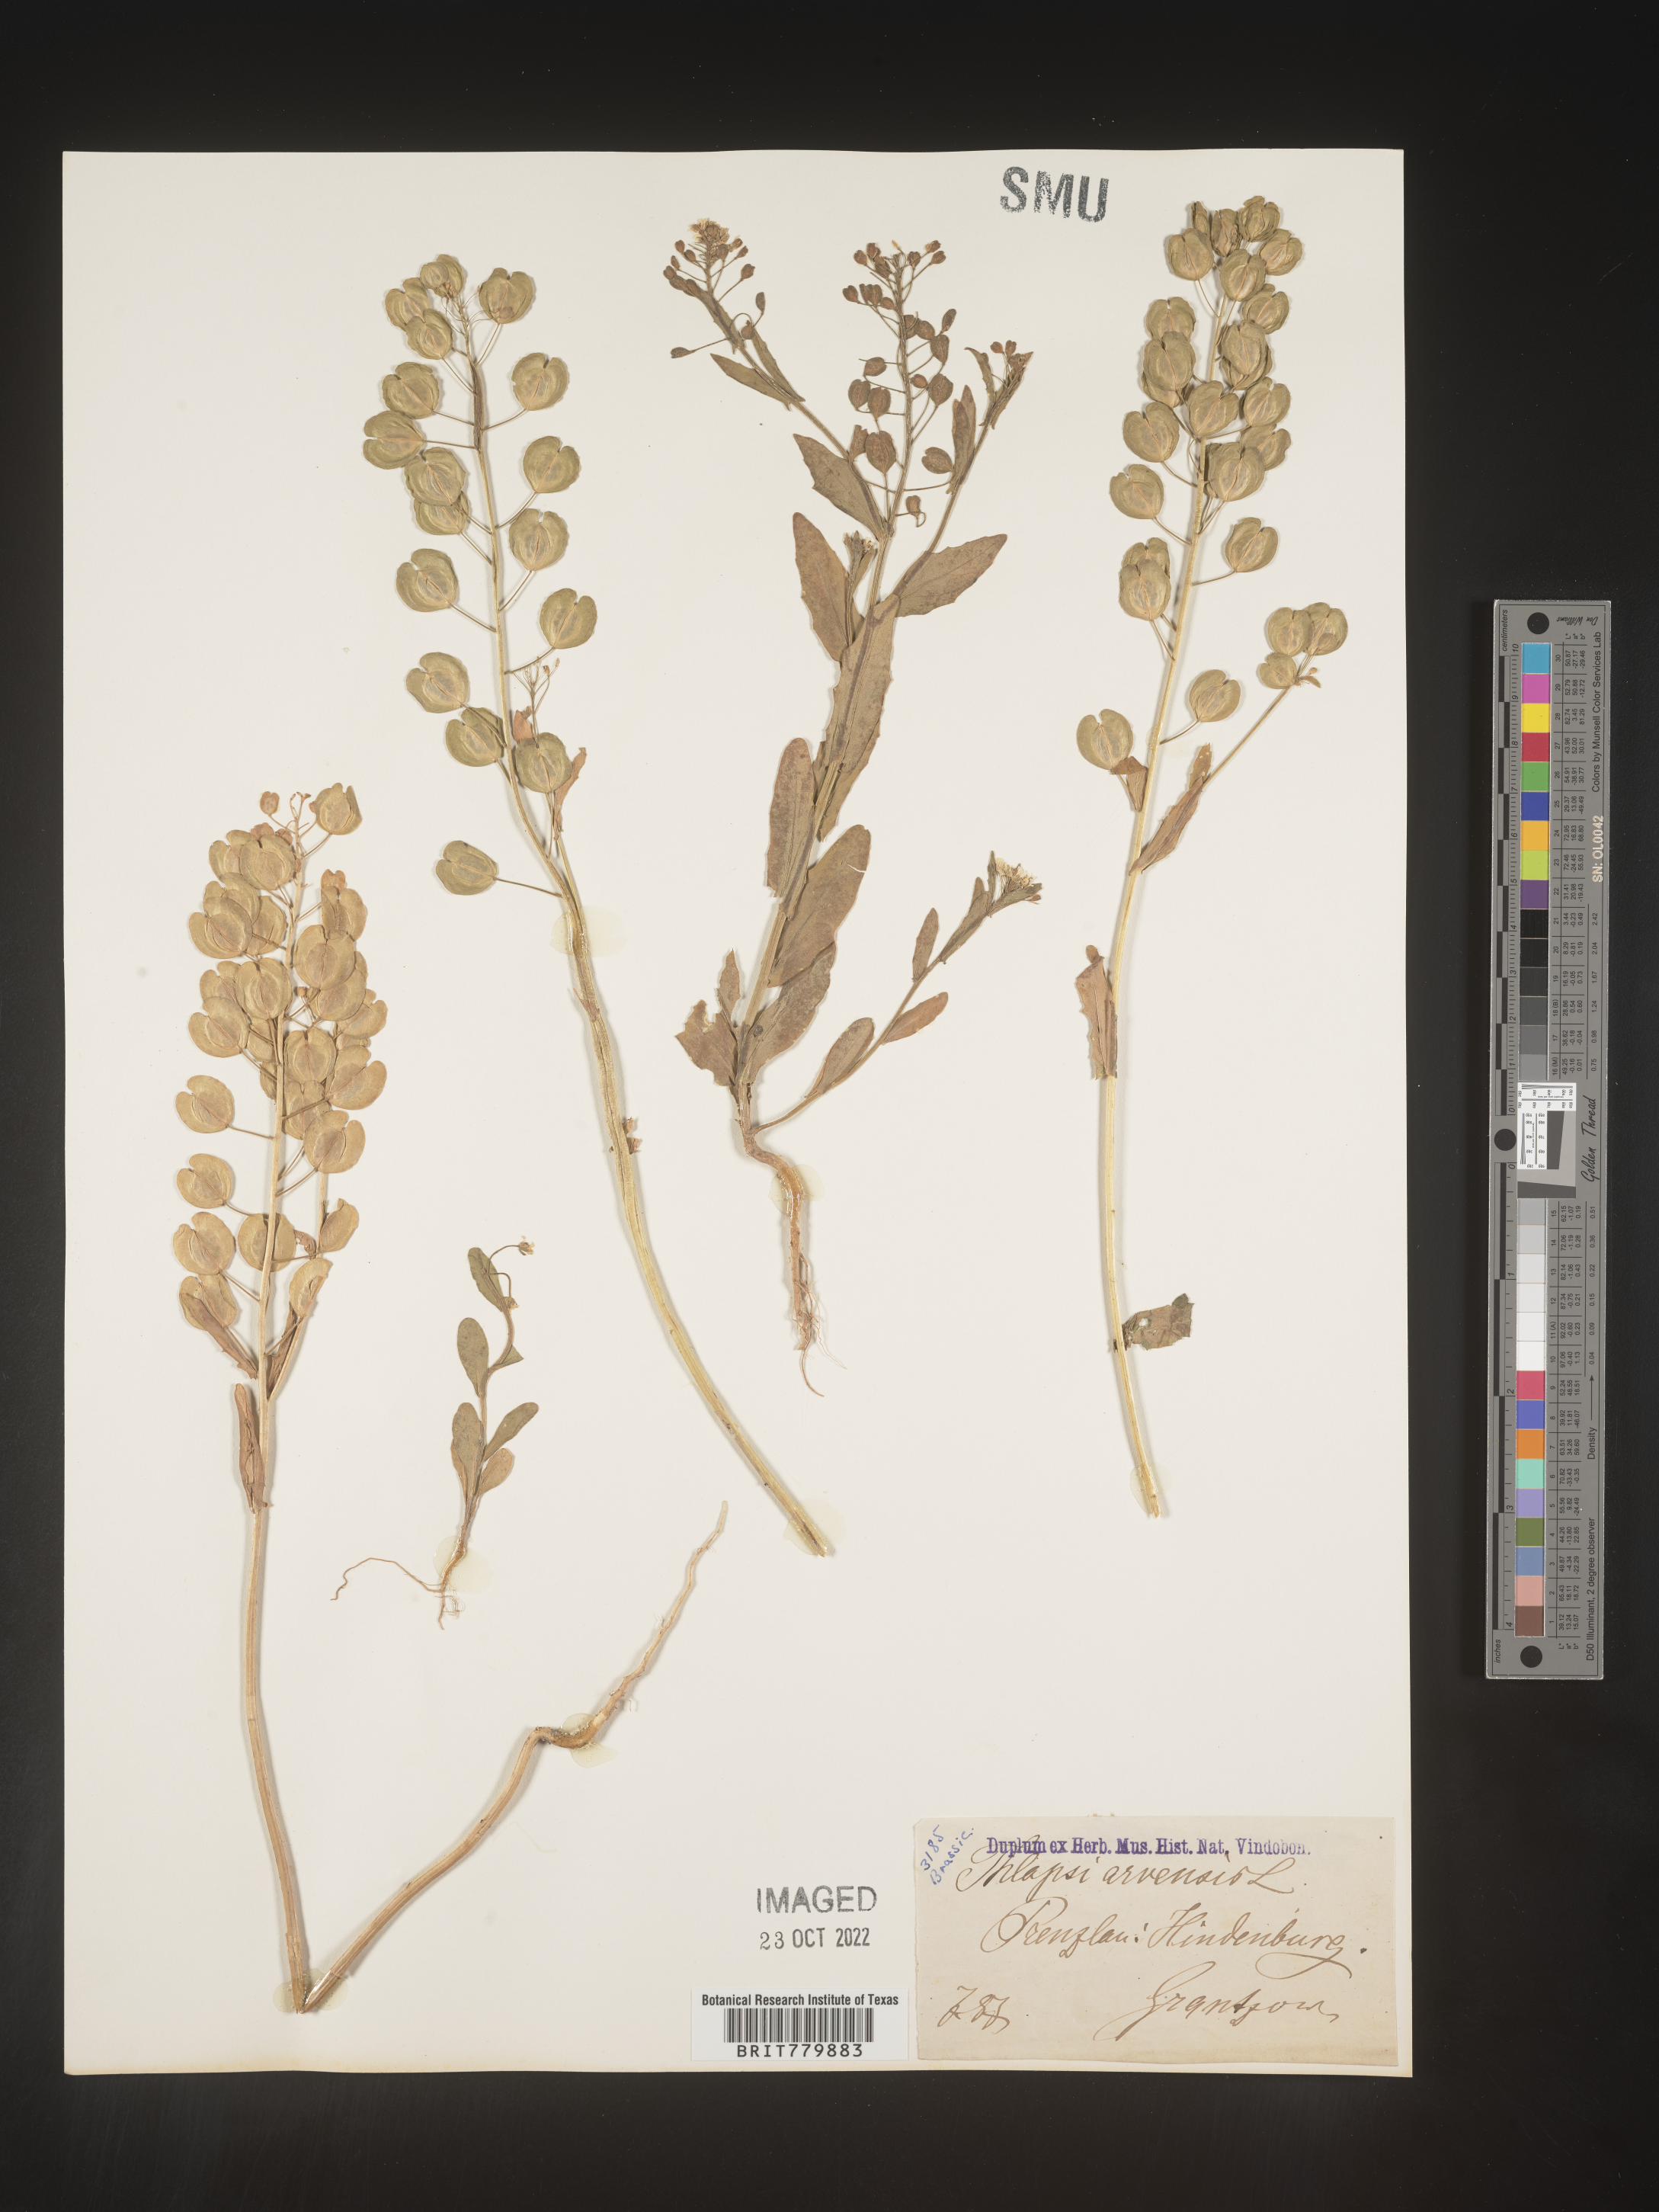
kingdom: Plantae
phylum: Tracheophyta
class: Magnoliopsida
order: Brassicales
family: Brassicaceae
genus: Thlaspi
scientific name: Thlaspi
